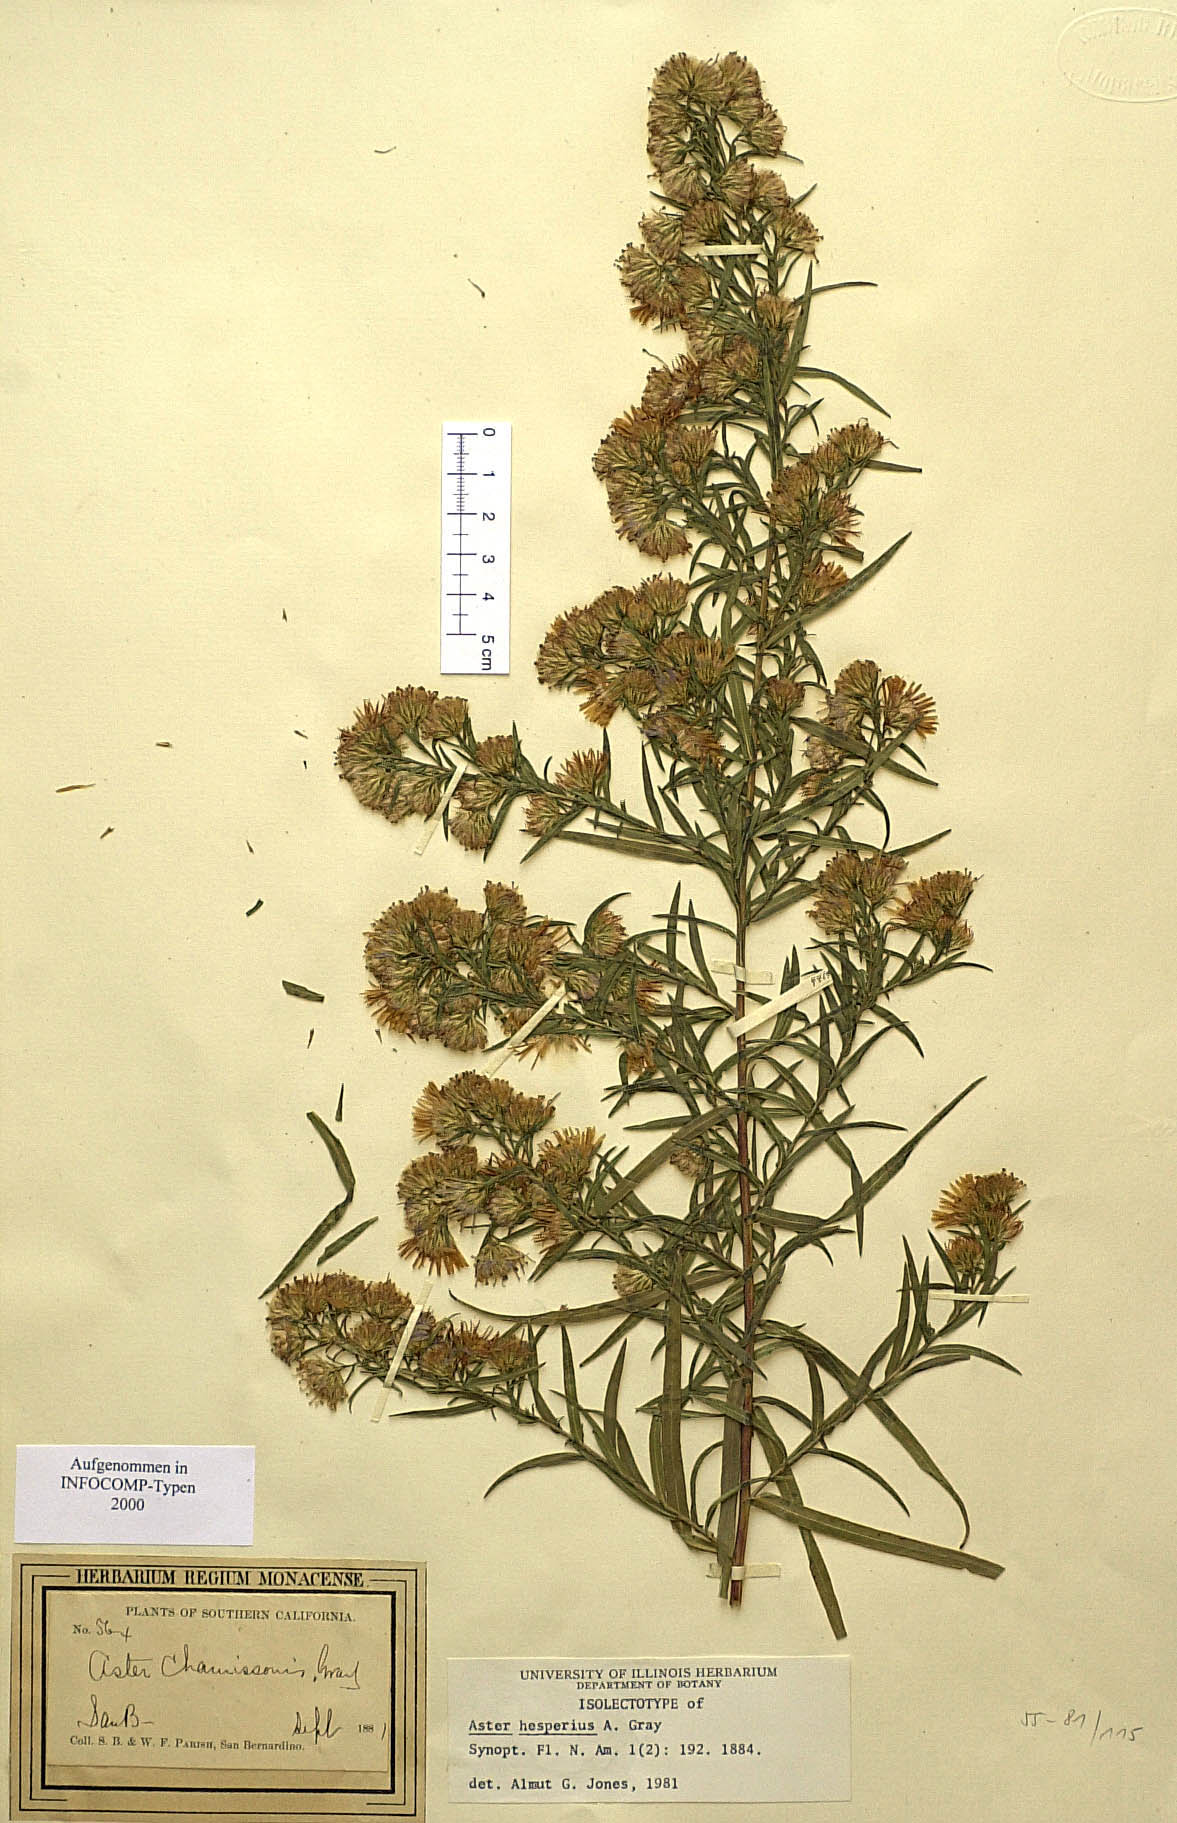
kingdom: Plantae
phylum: Tracheophyta
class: Magnoliopsida
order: Asterales
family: Asteraceae
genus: Symphyotrichum
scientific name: Symphyotrichum lanceolatum
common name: Panicled aster
